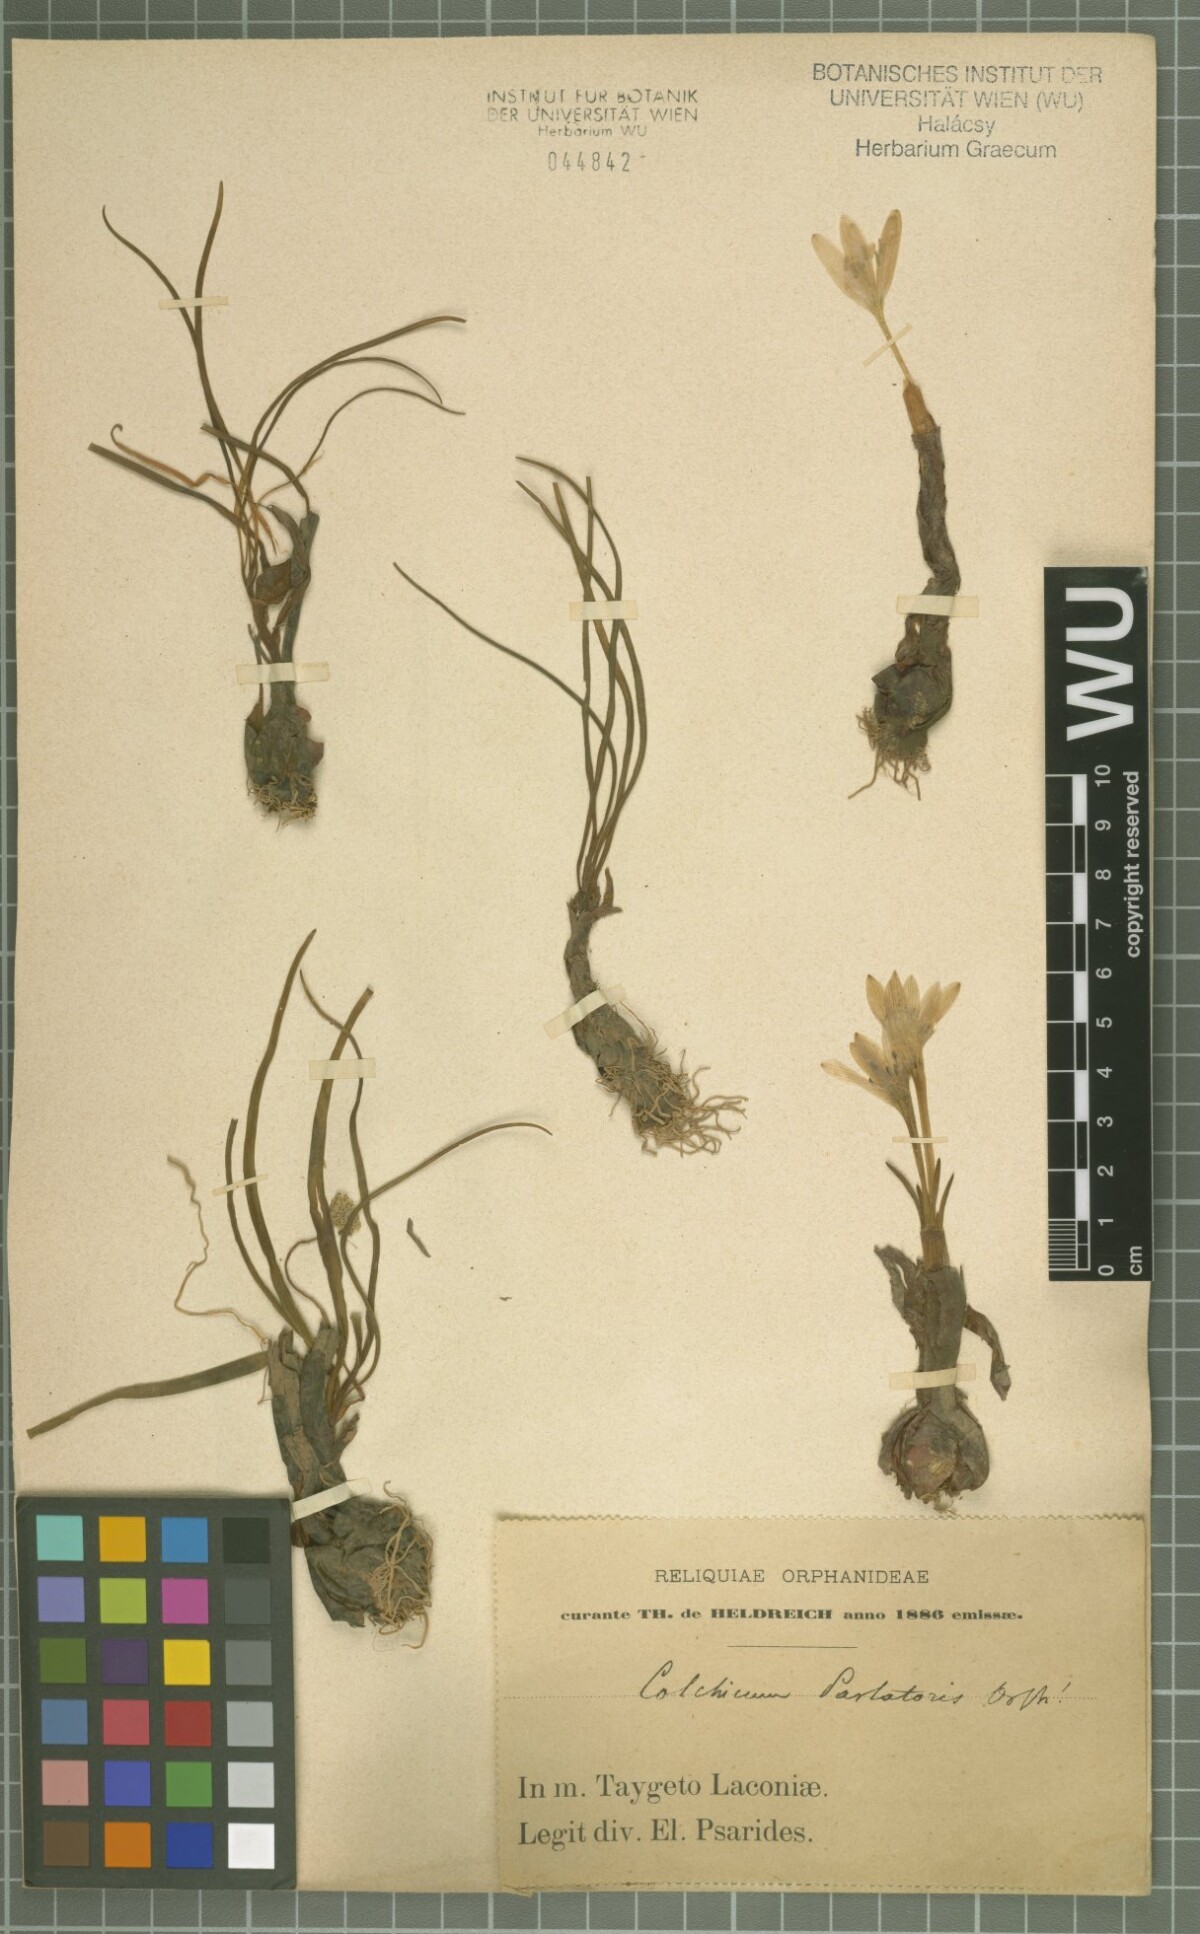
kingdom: Plantae
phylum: Tracheophyta
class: Liliopsida
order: Liliales
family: Colchicaceae
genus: Colchicum
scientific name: Colchicum parlatoris
